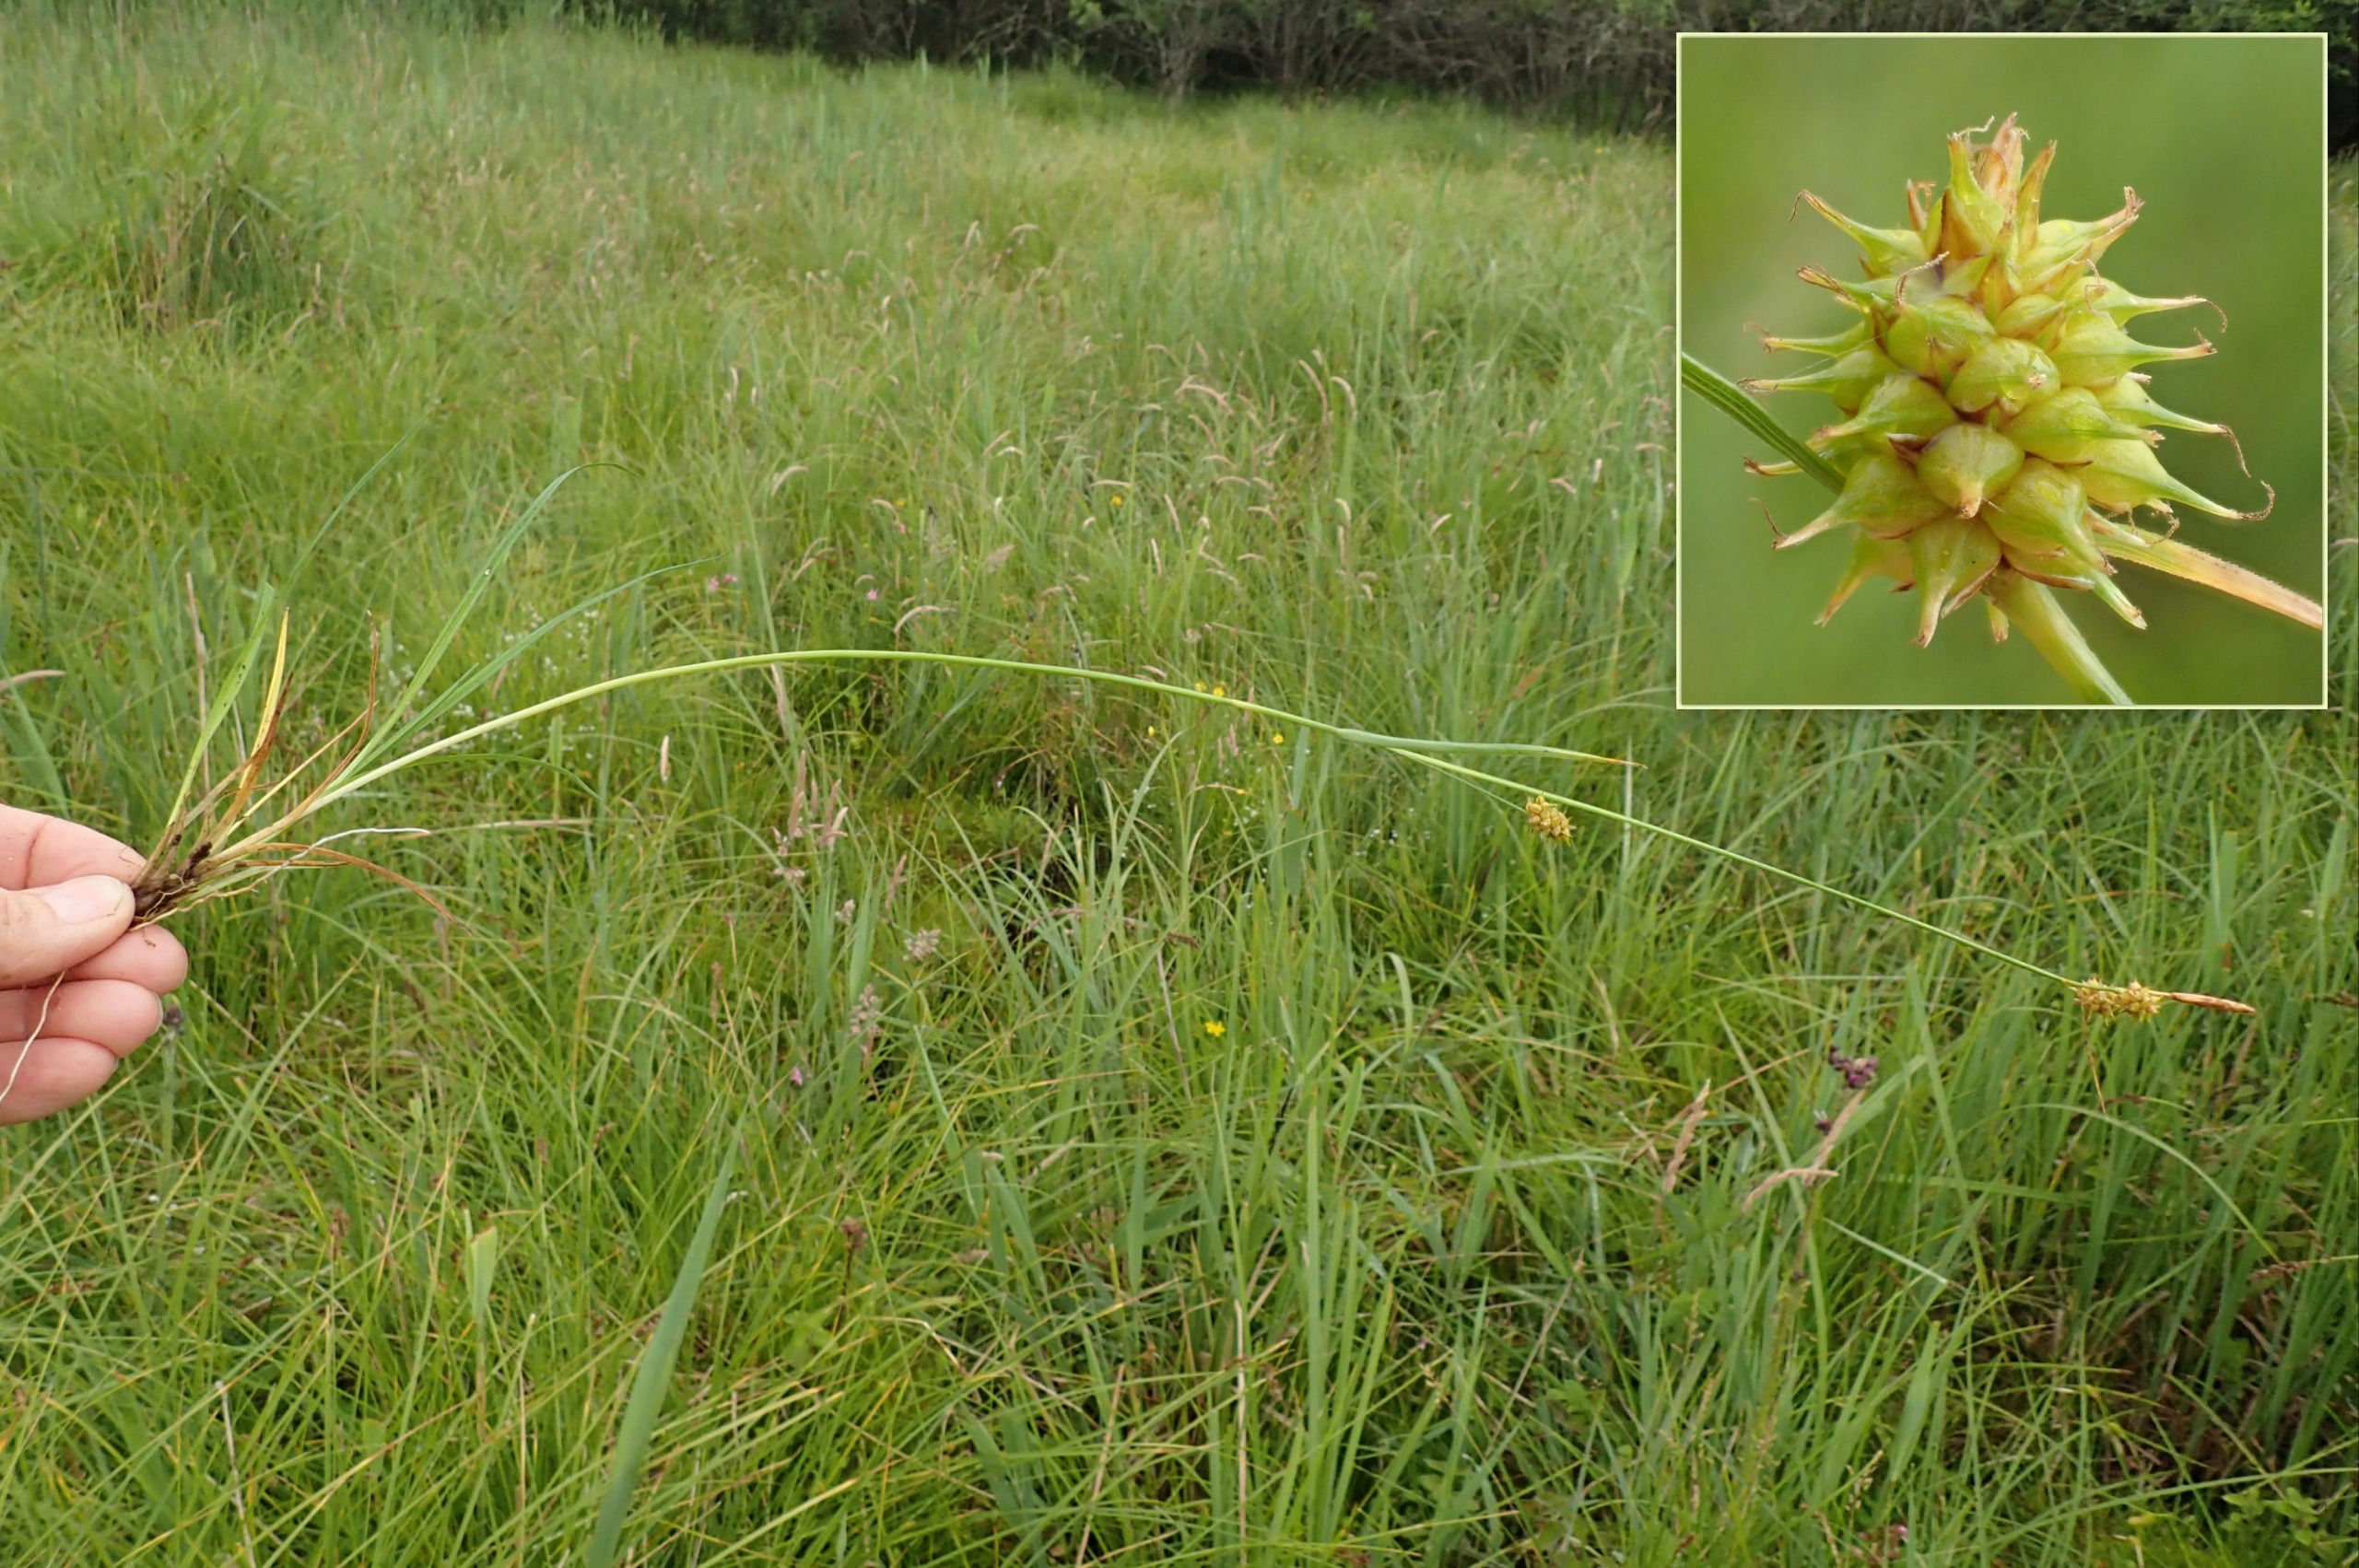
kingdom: Plantae
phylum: Tracheophyta
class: Liliopsida
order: Poales
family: Cyperaceae
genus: Carex
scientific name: Carex lepidocarpa
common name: Krognæb-star
